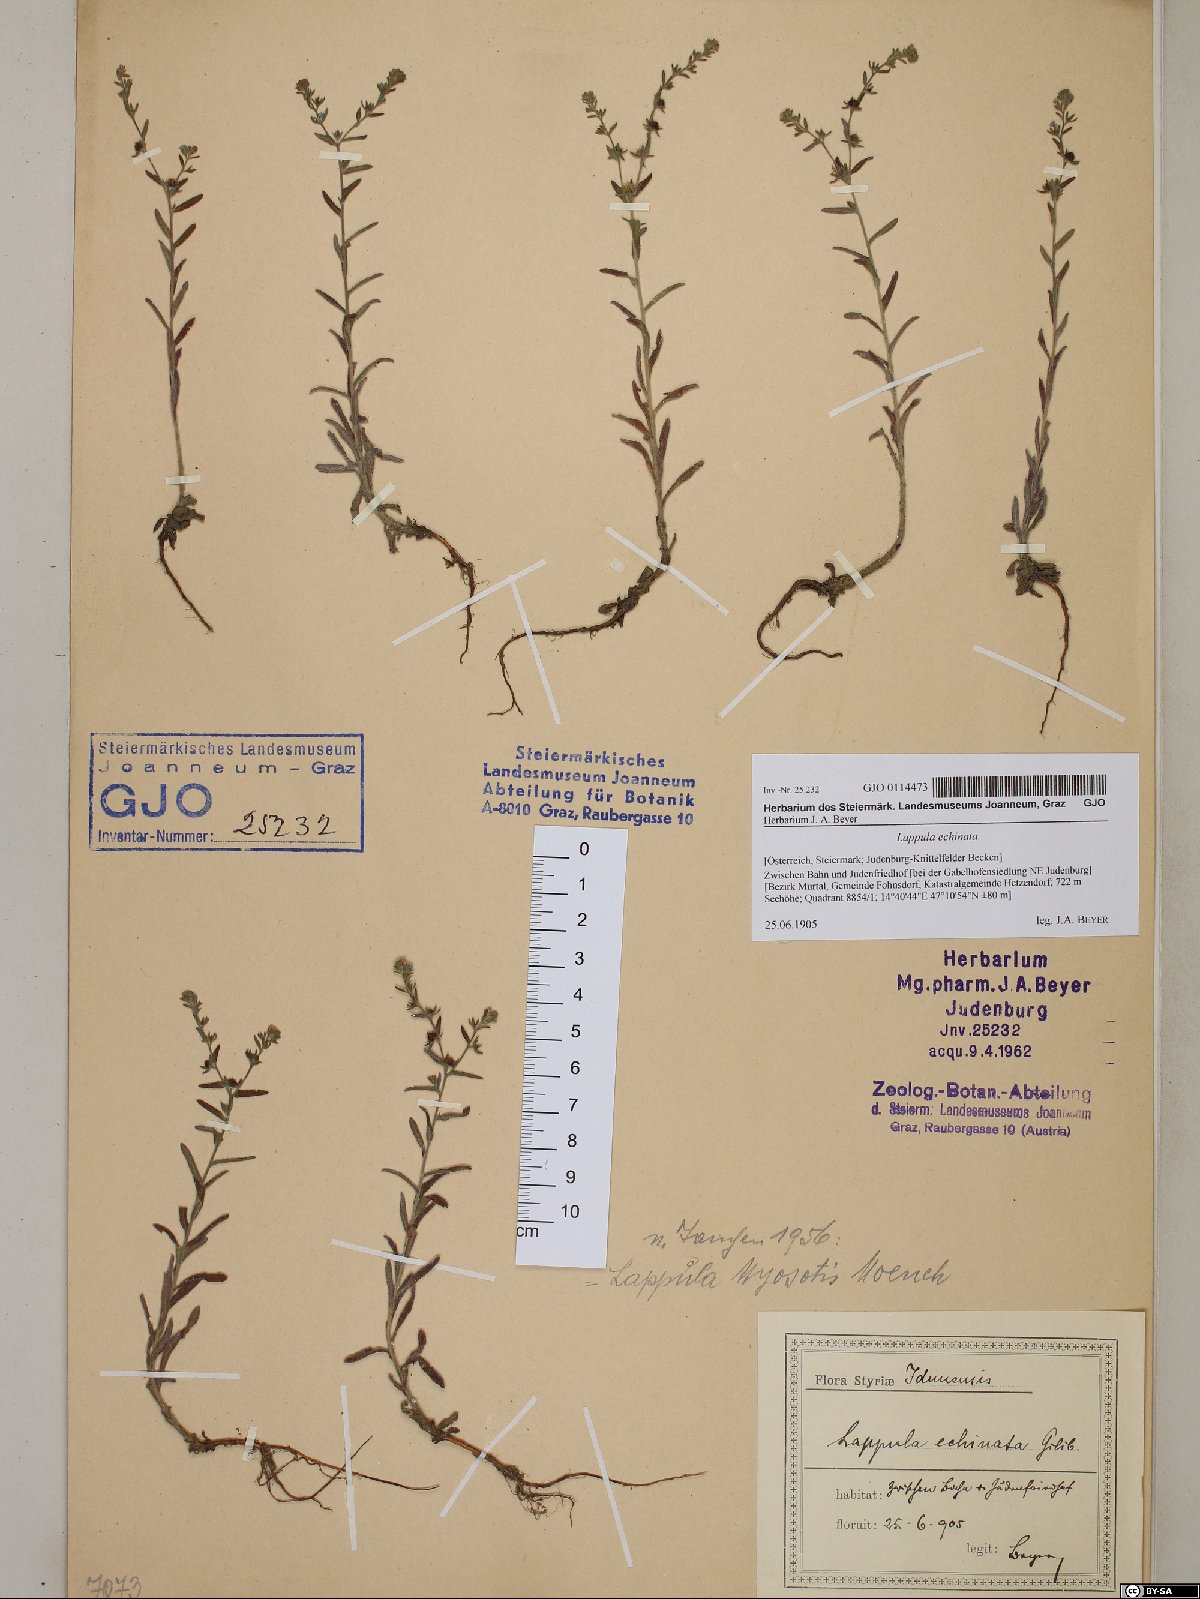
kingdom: Plantae
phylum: Tracheophyta
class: Magnoliopsida
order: Boraginales
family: Boraginaceae
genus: Lappula
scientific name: Lappula squarrosa
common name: European stickseed
